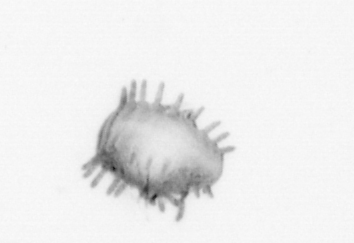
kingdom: Animalia
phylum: Annelida
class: Polychaeta
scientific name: Polychaeta
